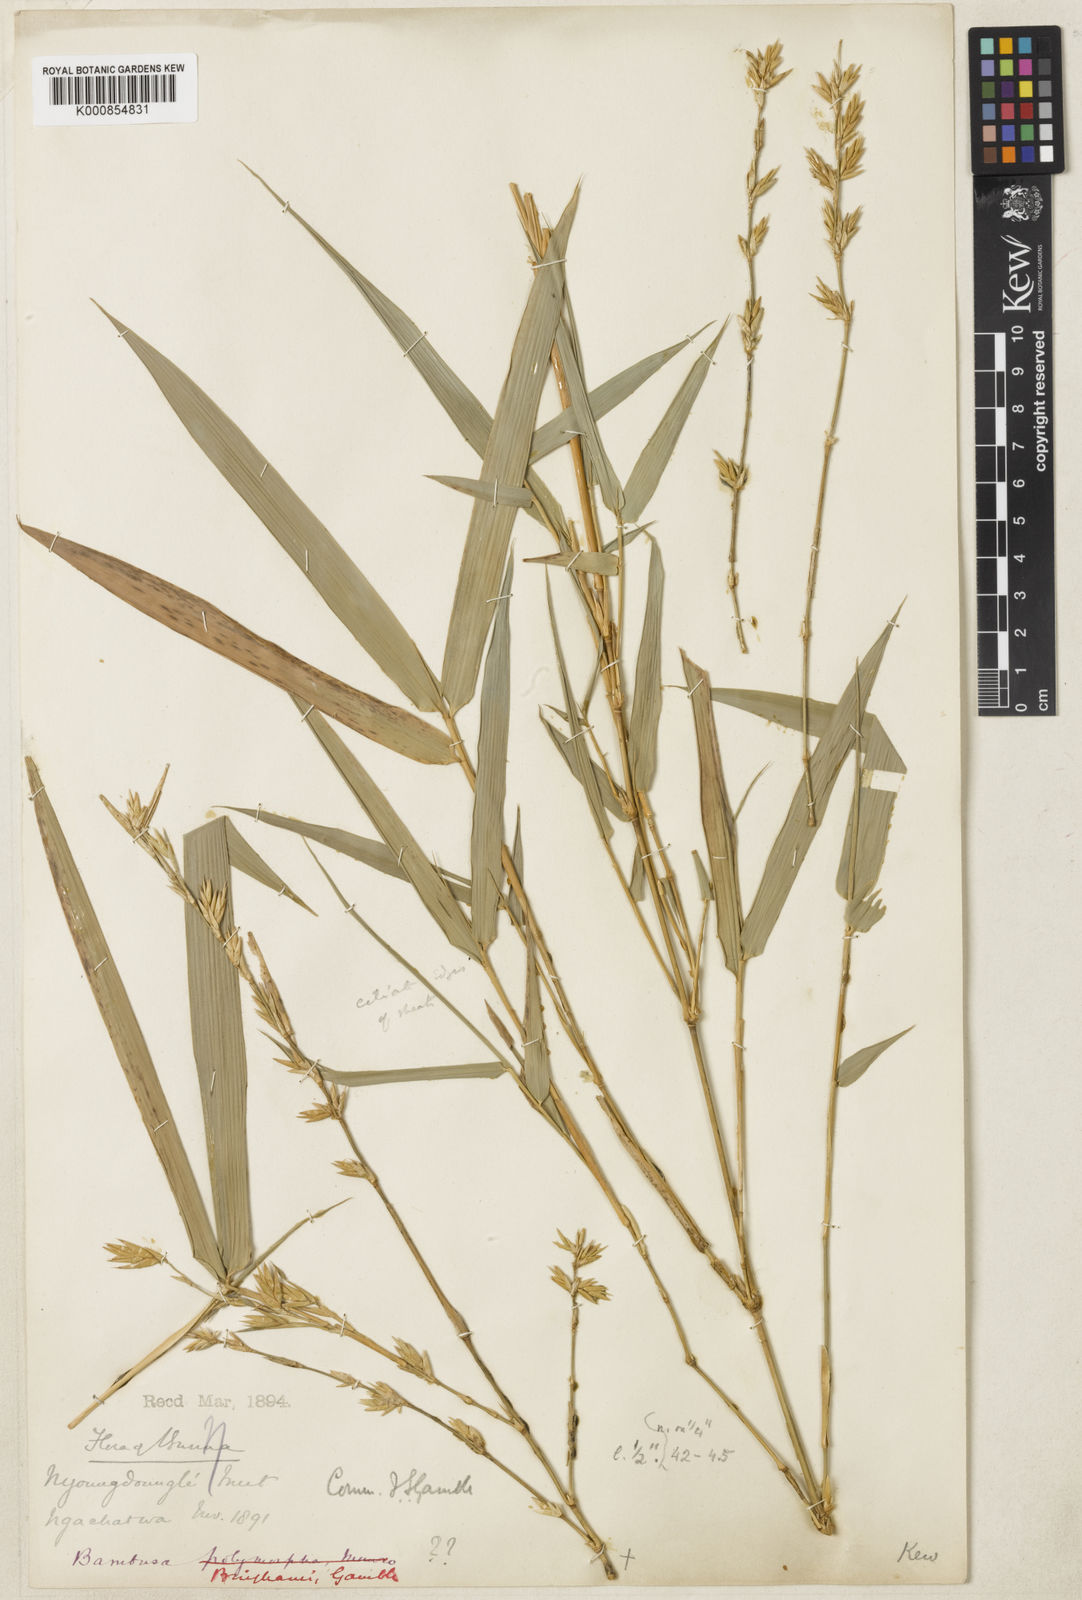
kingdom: Plantae
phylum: Tracheophyta
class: Liliopsida
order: Poales
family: Poaceae
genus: Bambusa
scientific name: Bambusa binghamii
